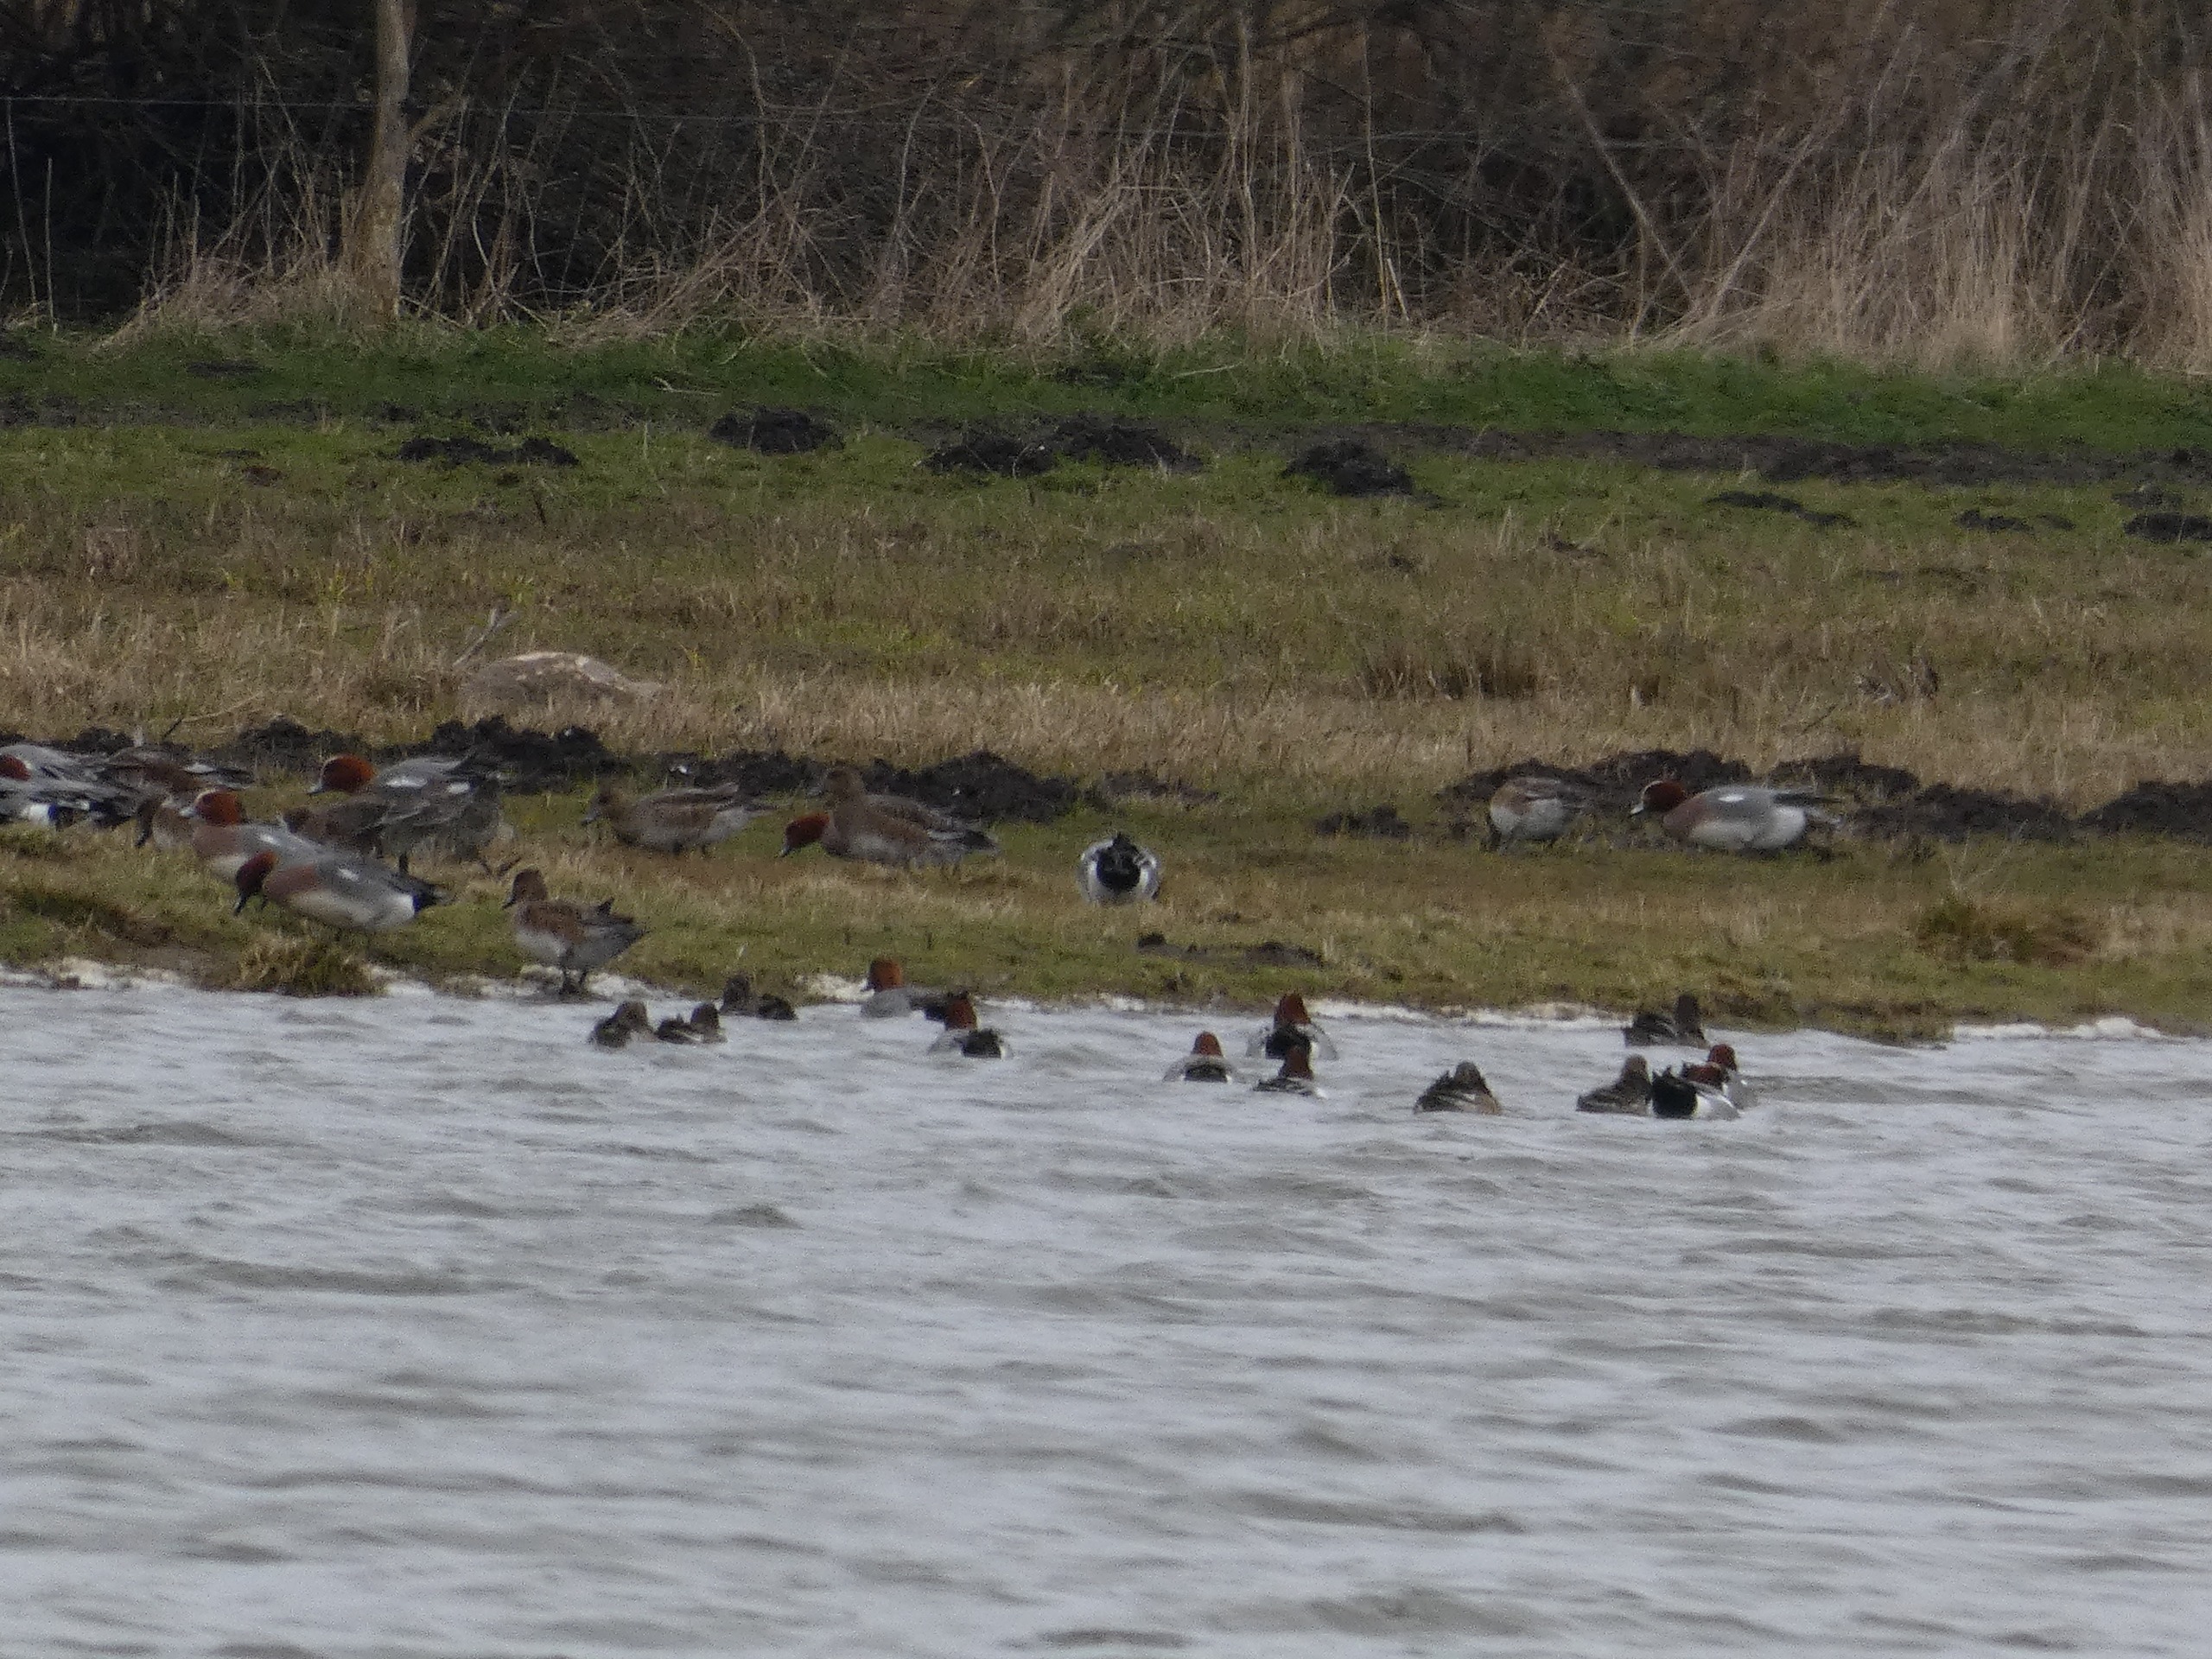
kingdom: Animalia
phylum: Chordata
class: Aves
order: Anseriformes
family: Anatidae
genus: Mareca
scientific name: Mareca penelope
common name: Pibeand
